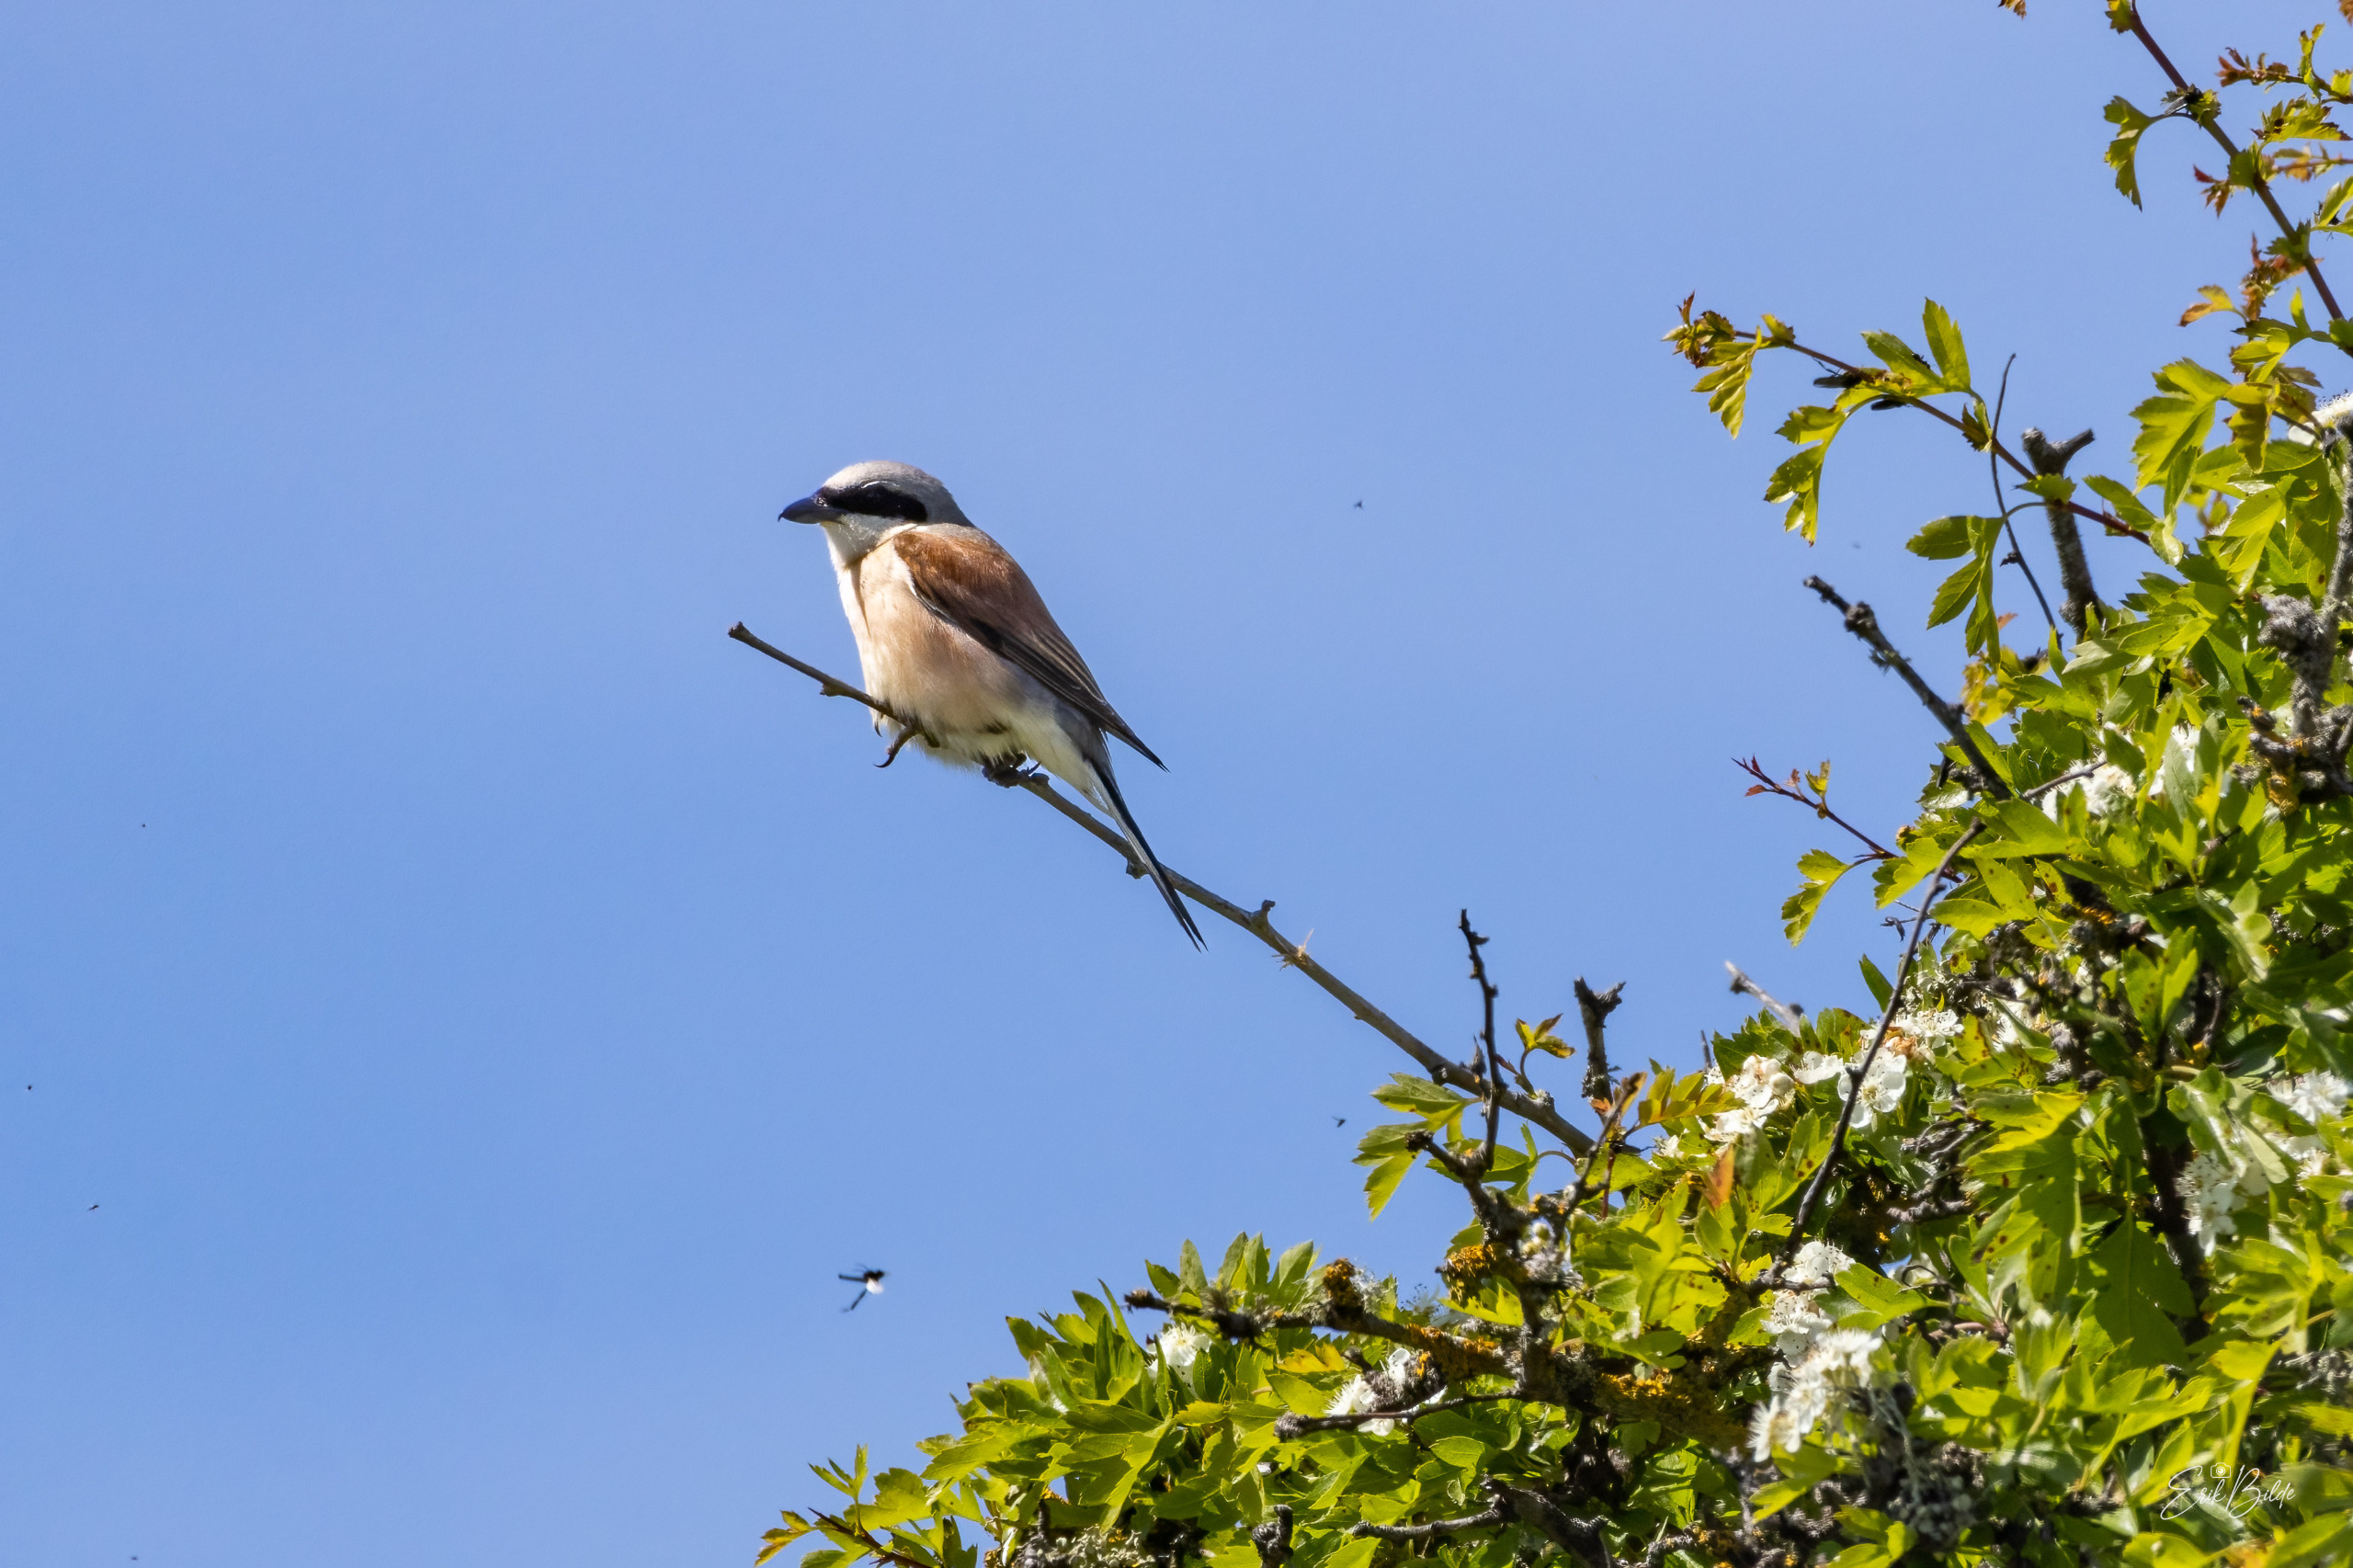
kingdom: Animalia
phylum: Chordata
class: Aves
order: Passeriformes
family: Laniidae
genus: Lanius
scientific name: Lanius collurio
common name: Rødrygget tornskade
